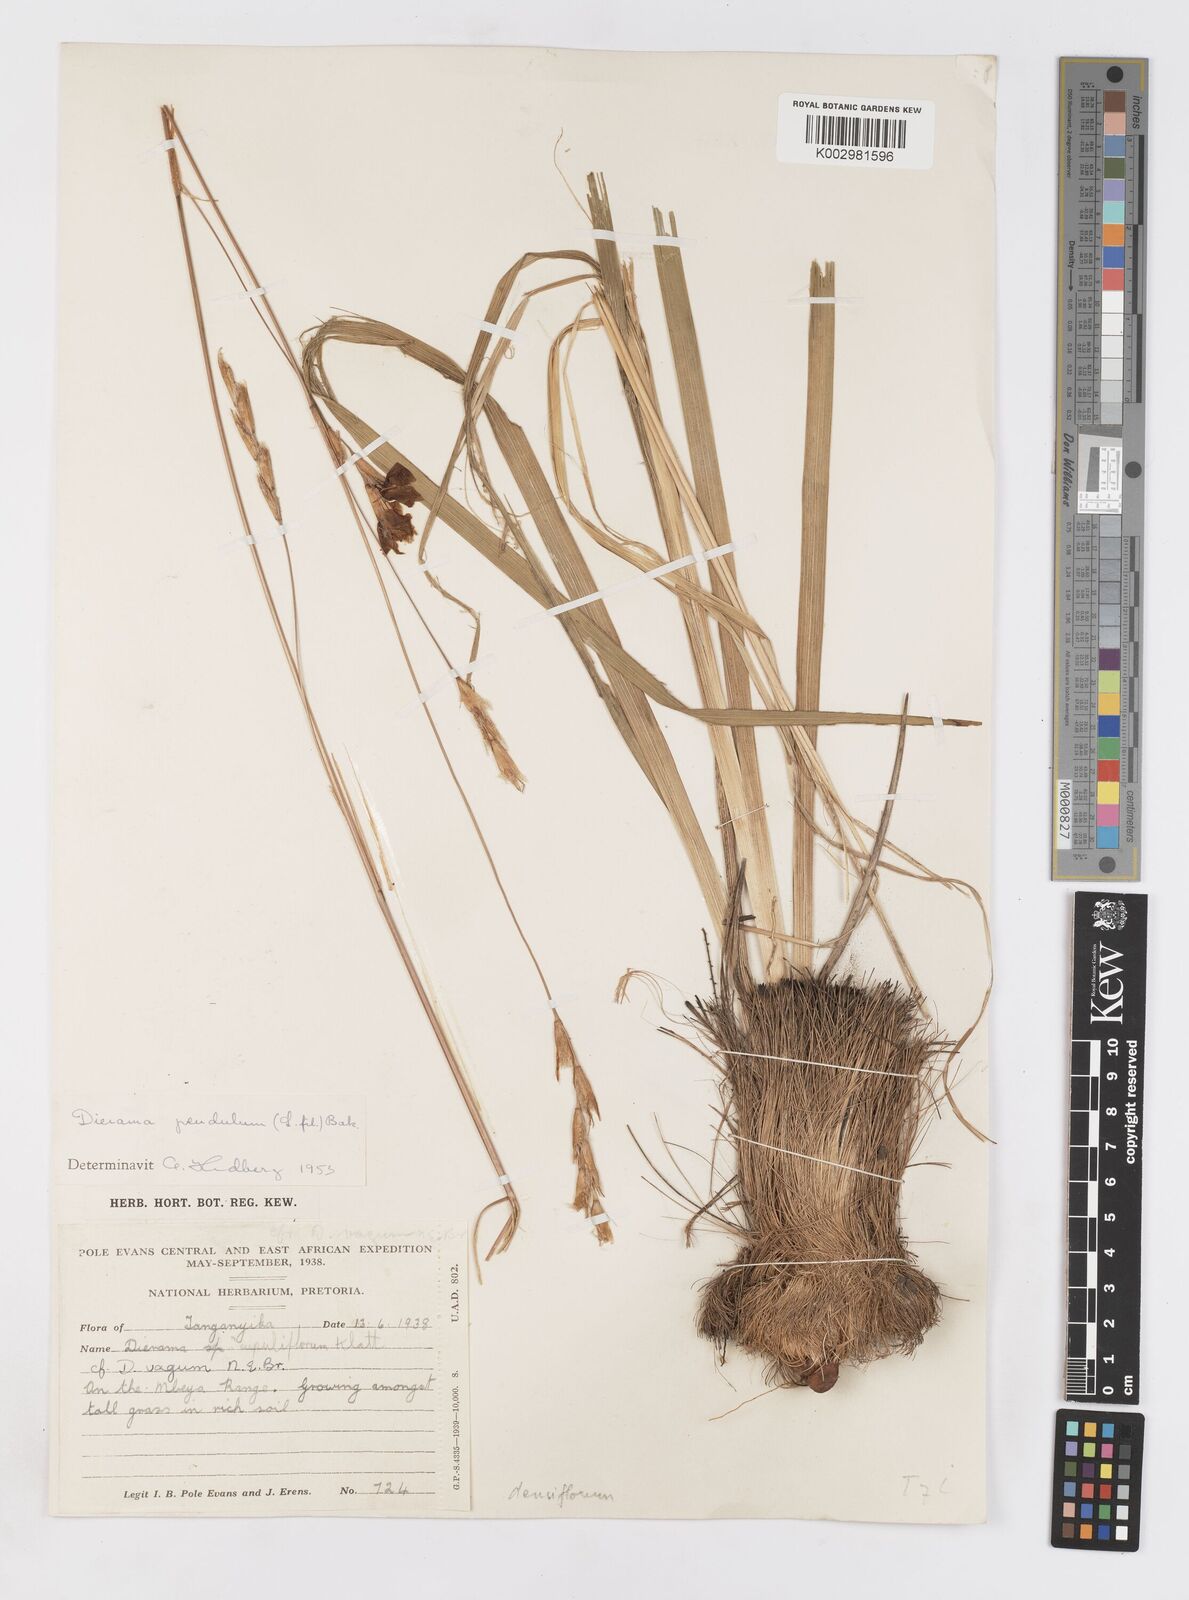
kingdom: Plantae
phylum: Tracheophyta
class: Liliopsida
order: Asparagales
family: Iridaceae
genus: Dierama
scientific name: Dierama densiflorum
